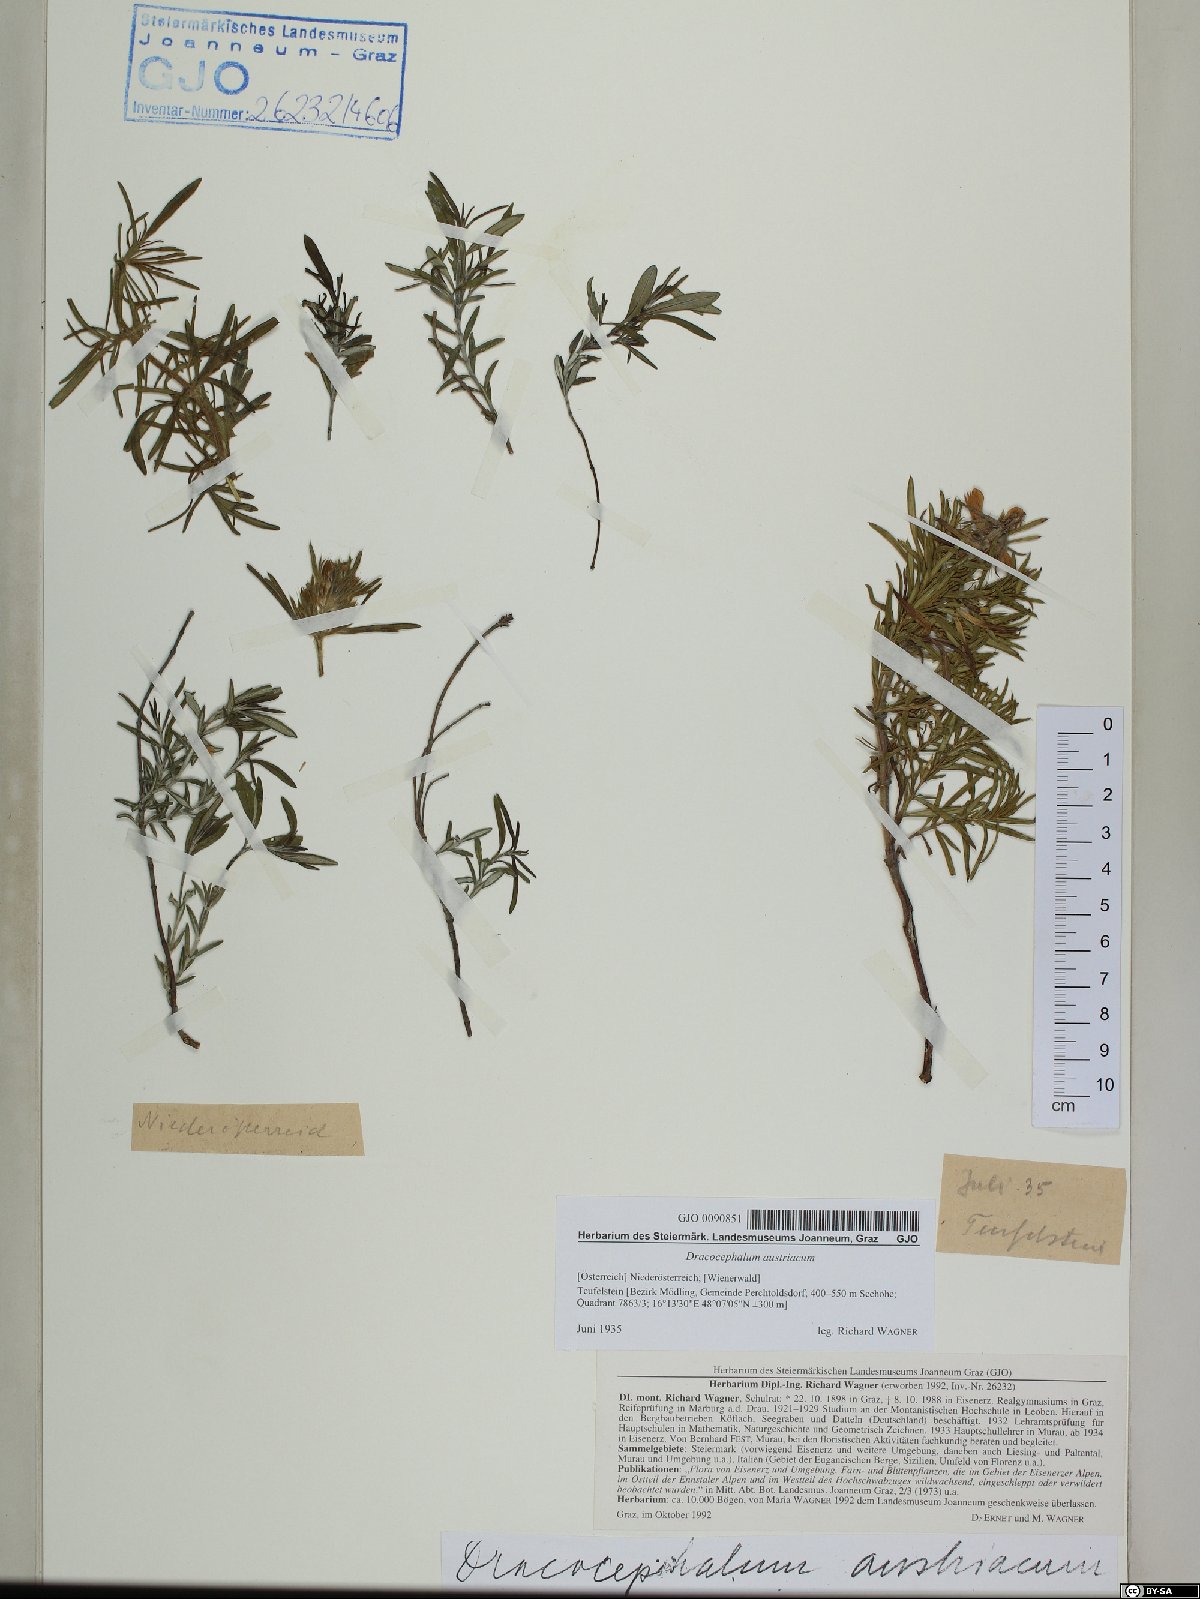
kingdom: Plantae
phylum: Tracheophyta
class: Magnoliopsida
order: Lamiales
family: Lamiaceae
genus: Dracocephalum
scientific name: Dracocephalum austriacum
